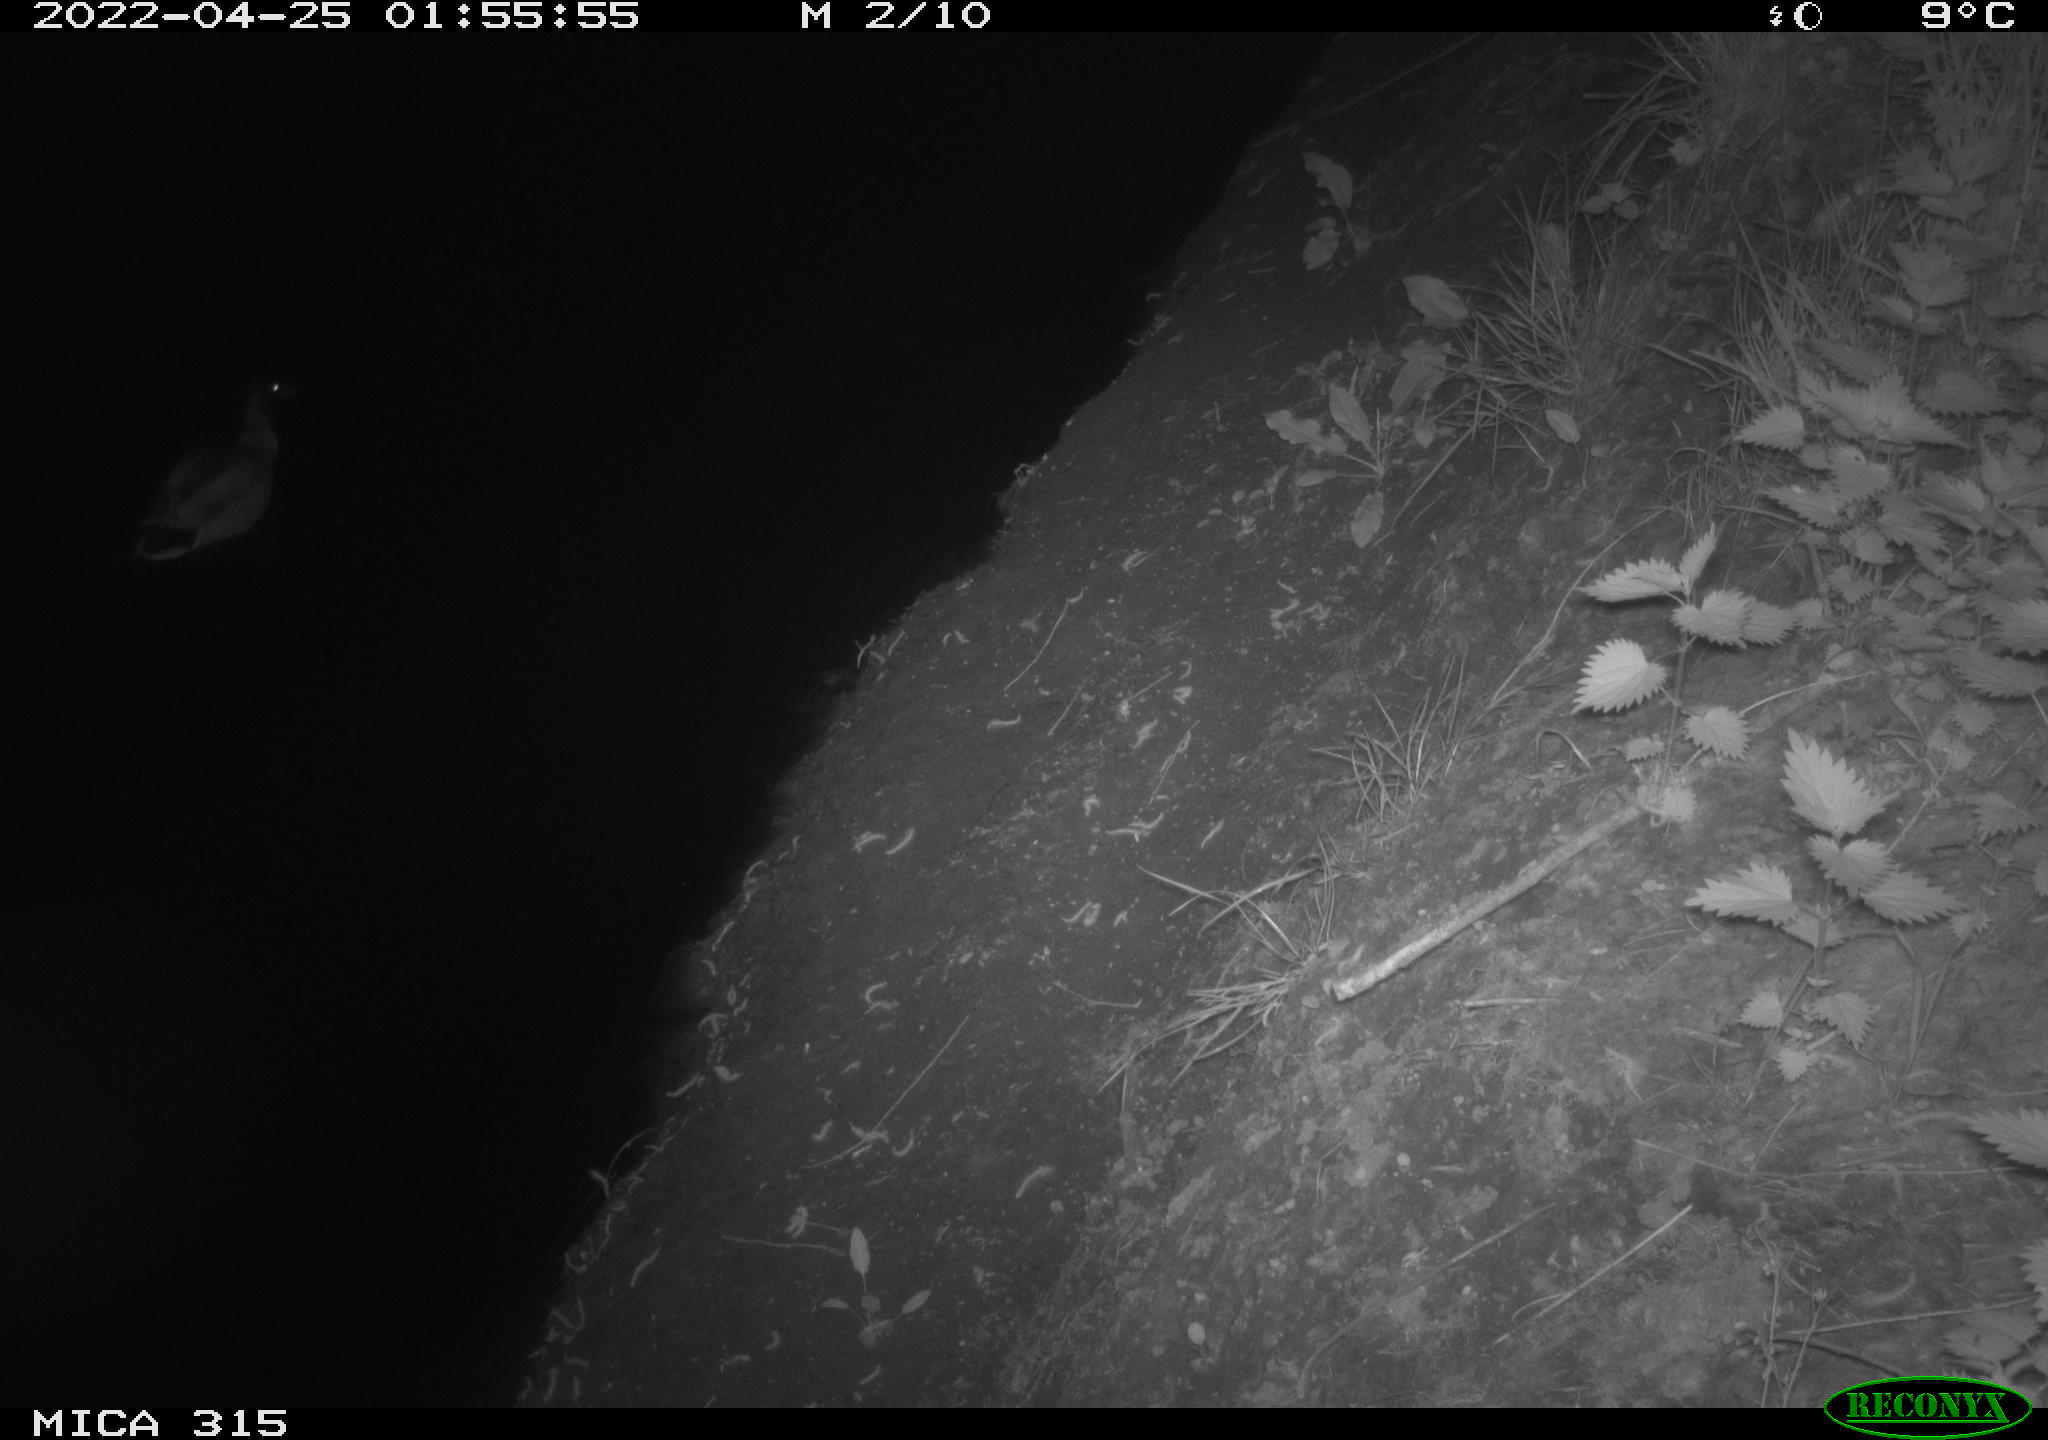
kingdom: Animalia
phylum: Chordata
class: Aves
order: Anseriformes
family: Anatidae
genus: Anas
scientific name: Anas platyrhynchos
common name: Mallard
